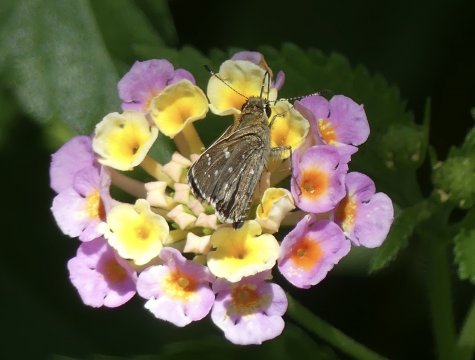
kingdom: Animalia
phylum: Arthropoda
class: Insecta
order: Lepidoptera
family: Hesperiidae
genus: Mastor
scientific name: Mastor tolteca
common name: Toltec Roadside-Skipper
